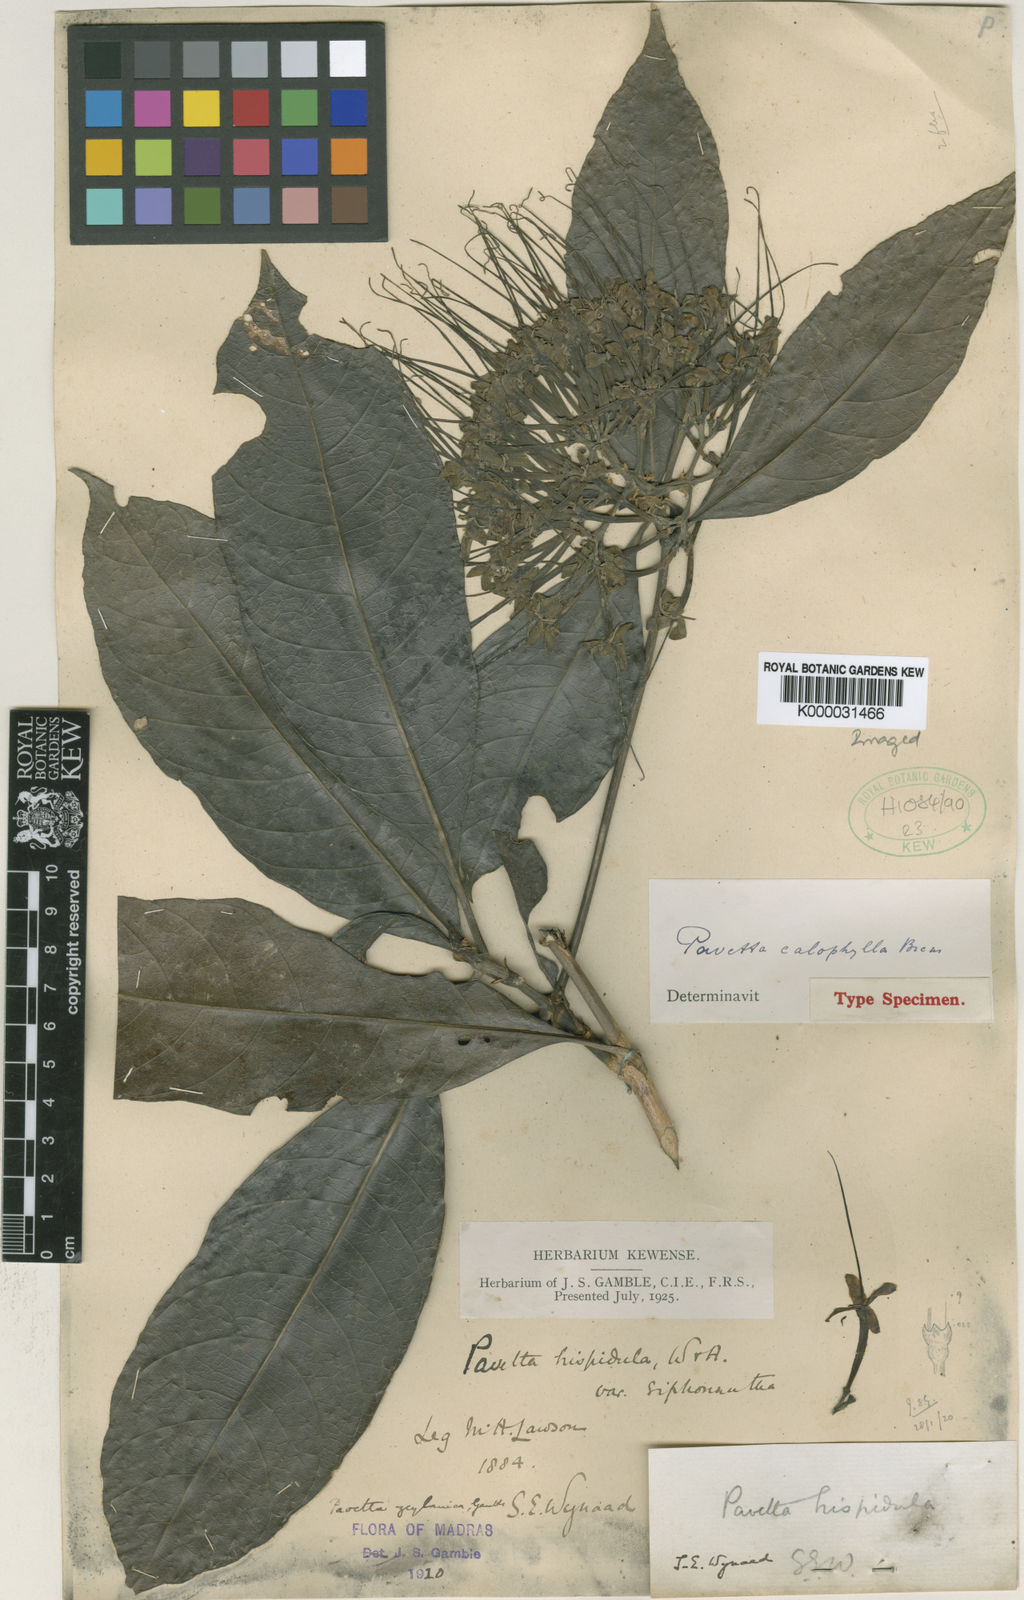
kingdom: Plantae
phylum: Tracheophyta
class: Magnoliopsida
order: Gentianales
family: Rubiaceae
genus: Pavetta
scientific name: Pavetta zeylanica
